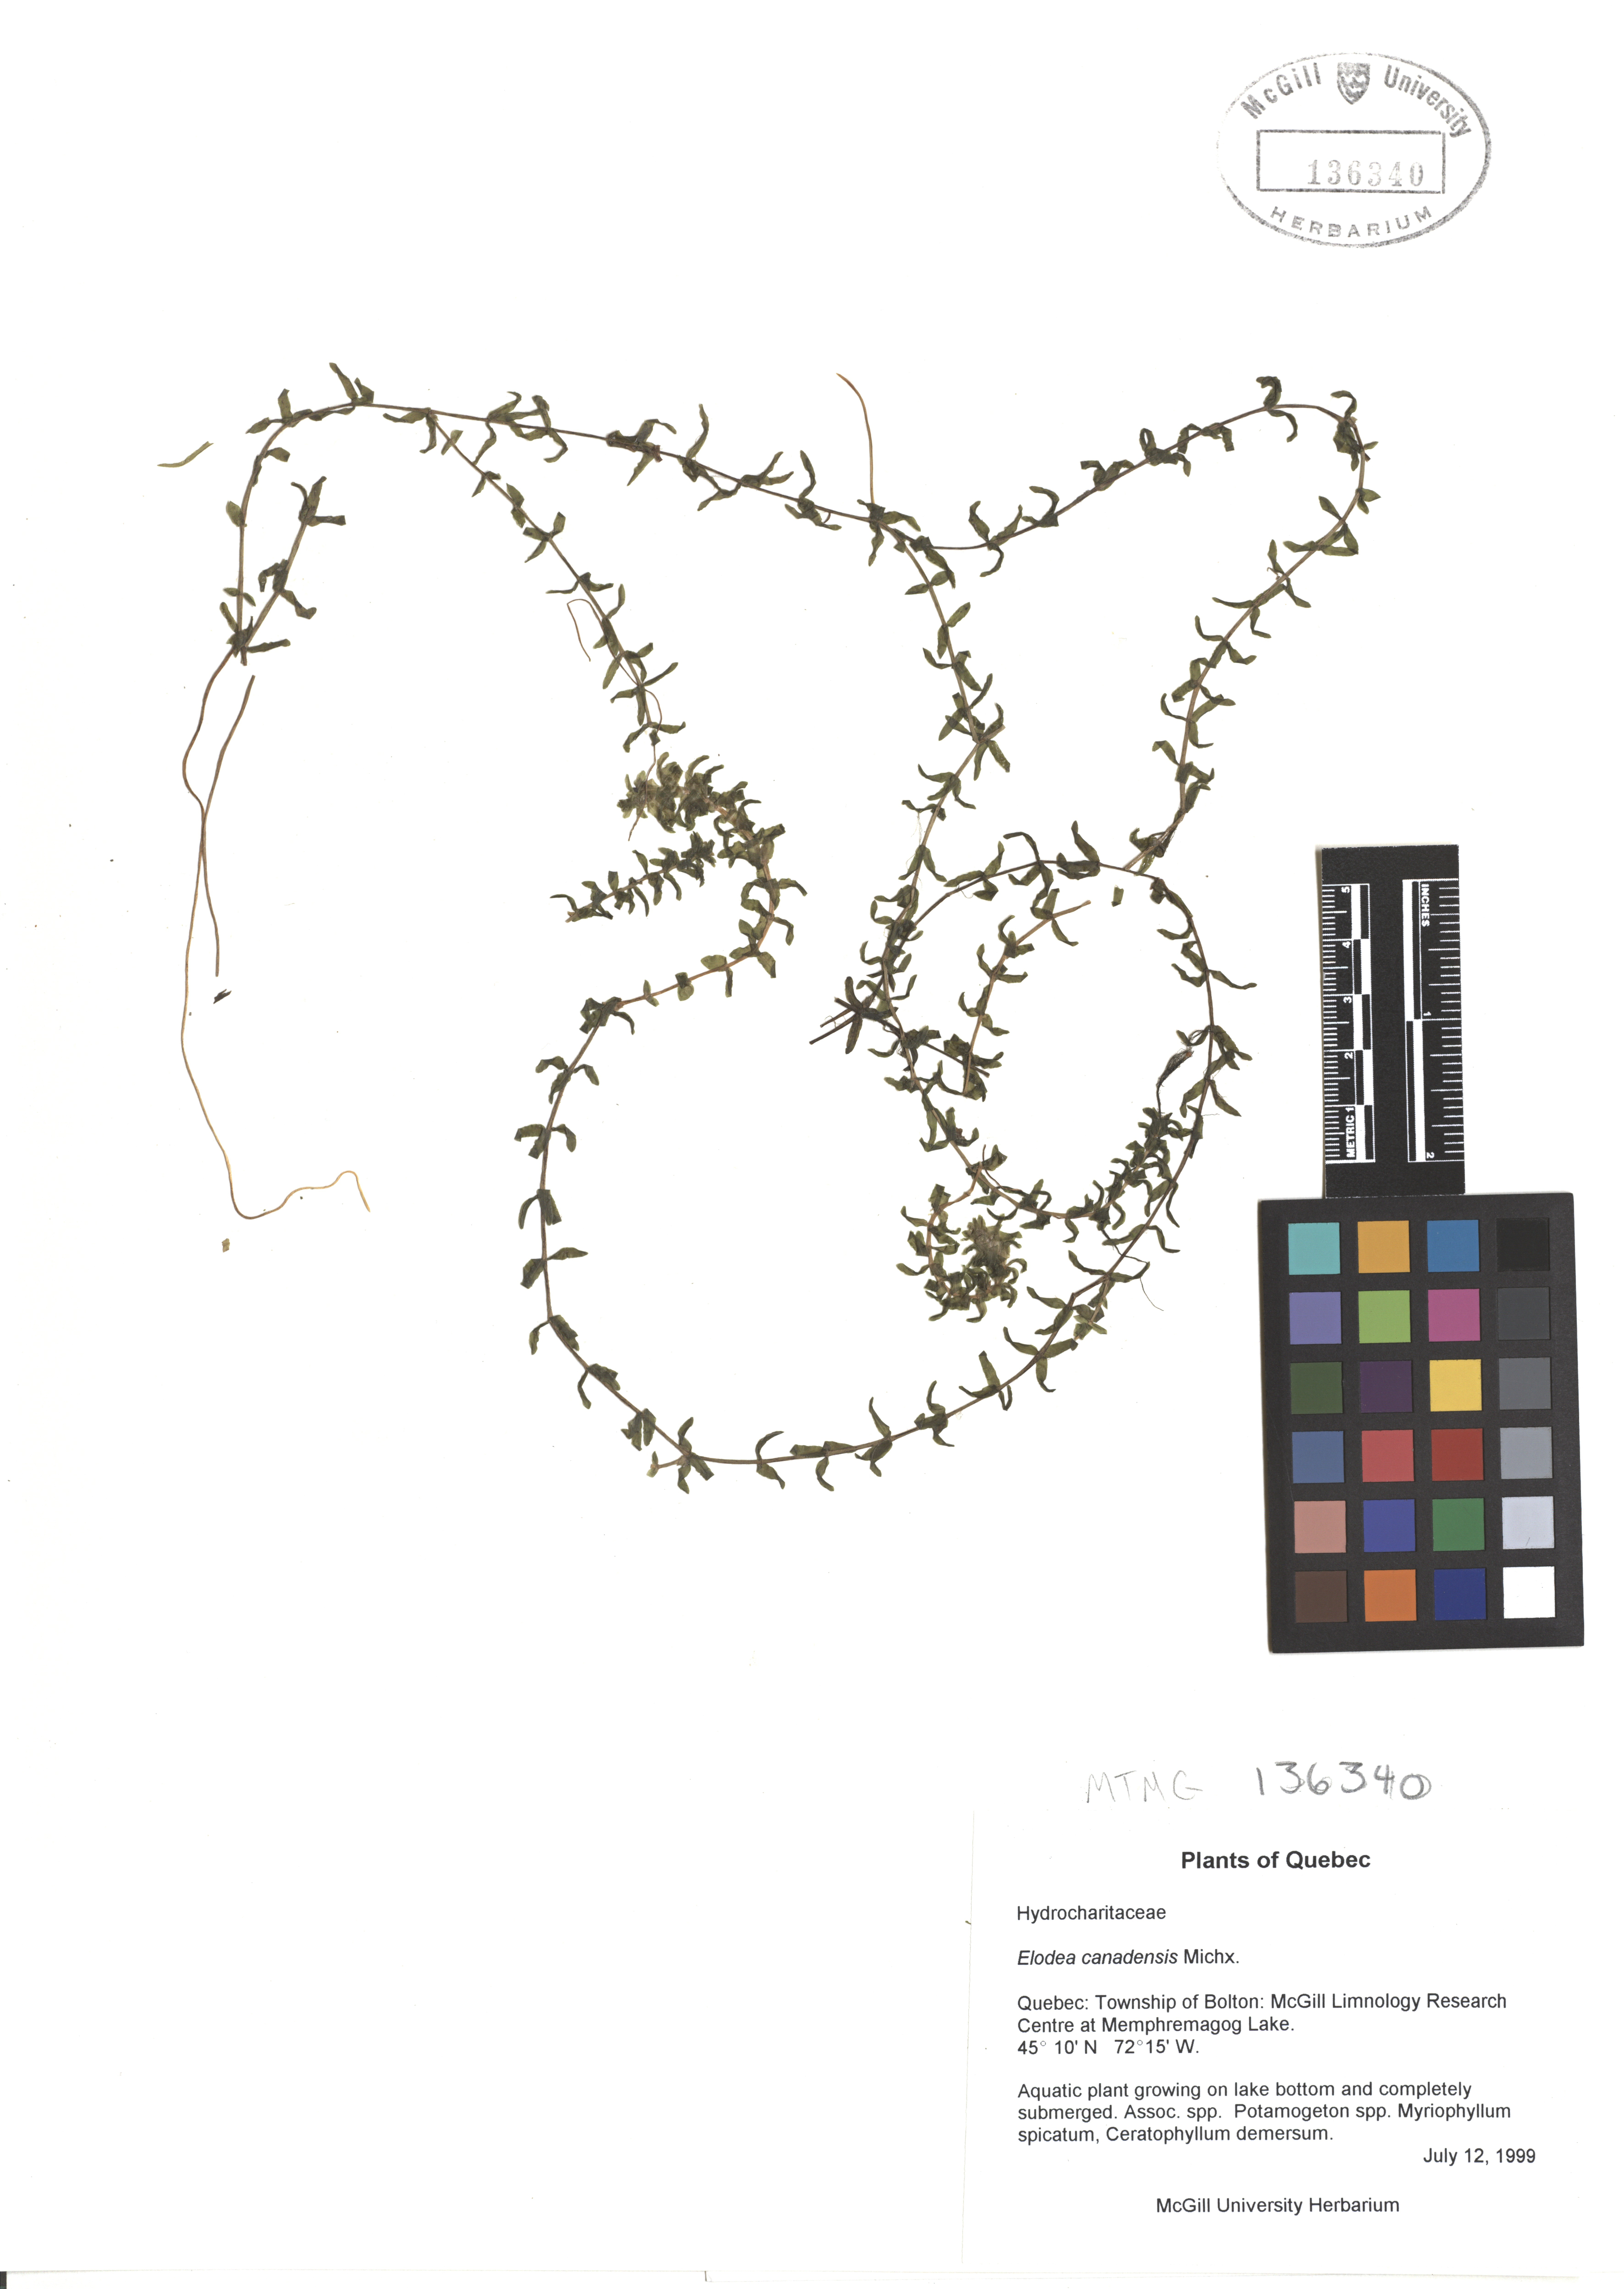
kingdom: Plantae
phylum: Tracheophyta
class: Liliopsida
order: Alismatales
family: Hydrocharitaceae
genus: Elodea
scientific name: Elodea canadensis
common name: Canadian waterweed
